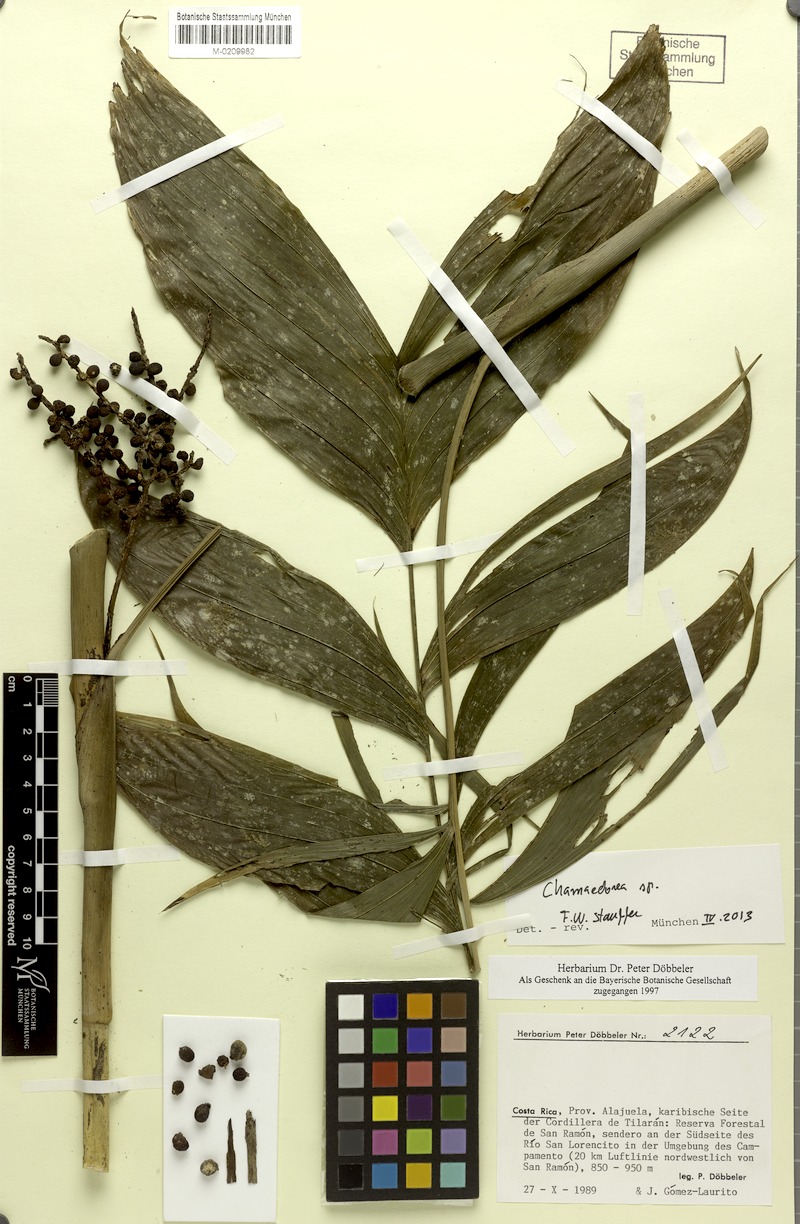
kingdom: Plantae
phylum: Tracheophyta
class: Liliopsida
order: Arecales
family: Arecaceae
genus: Chamaedorea
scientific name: Chamaedorea
